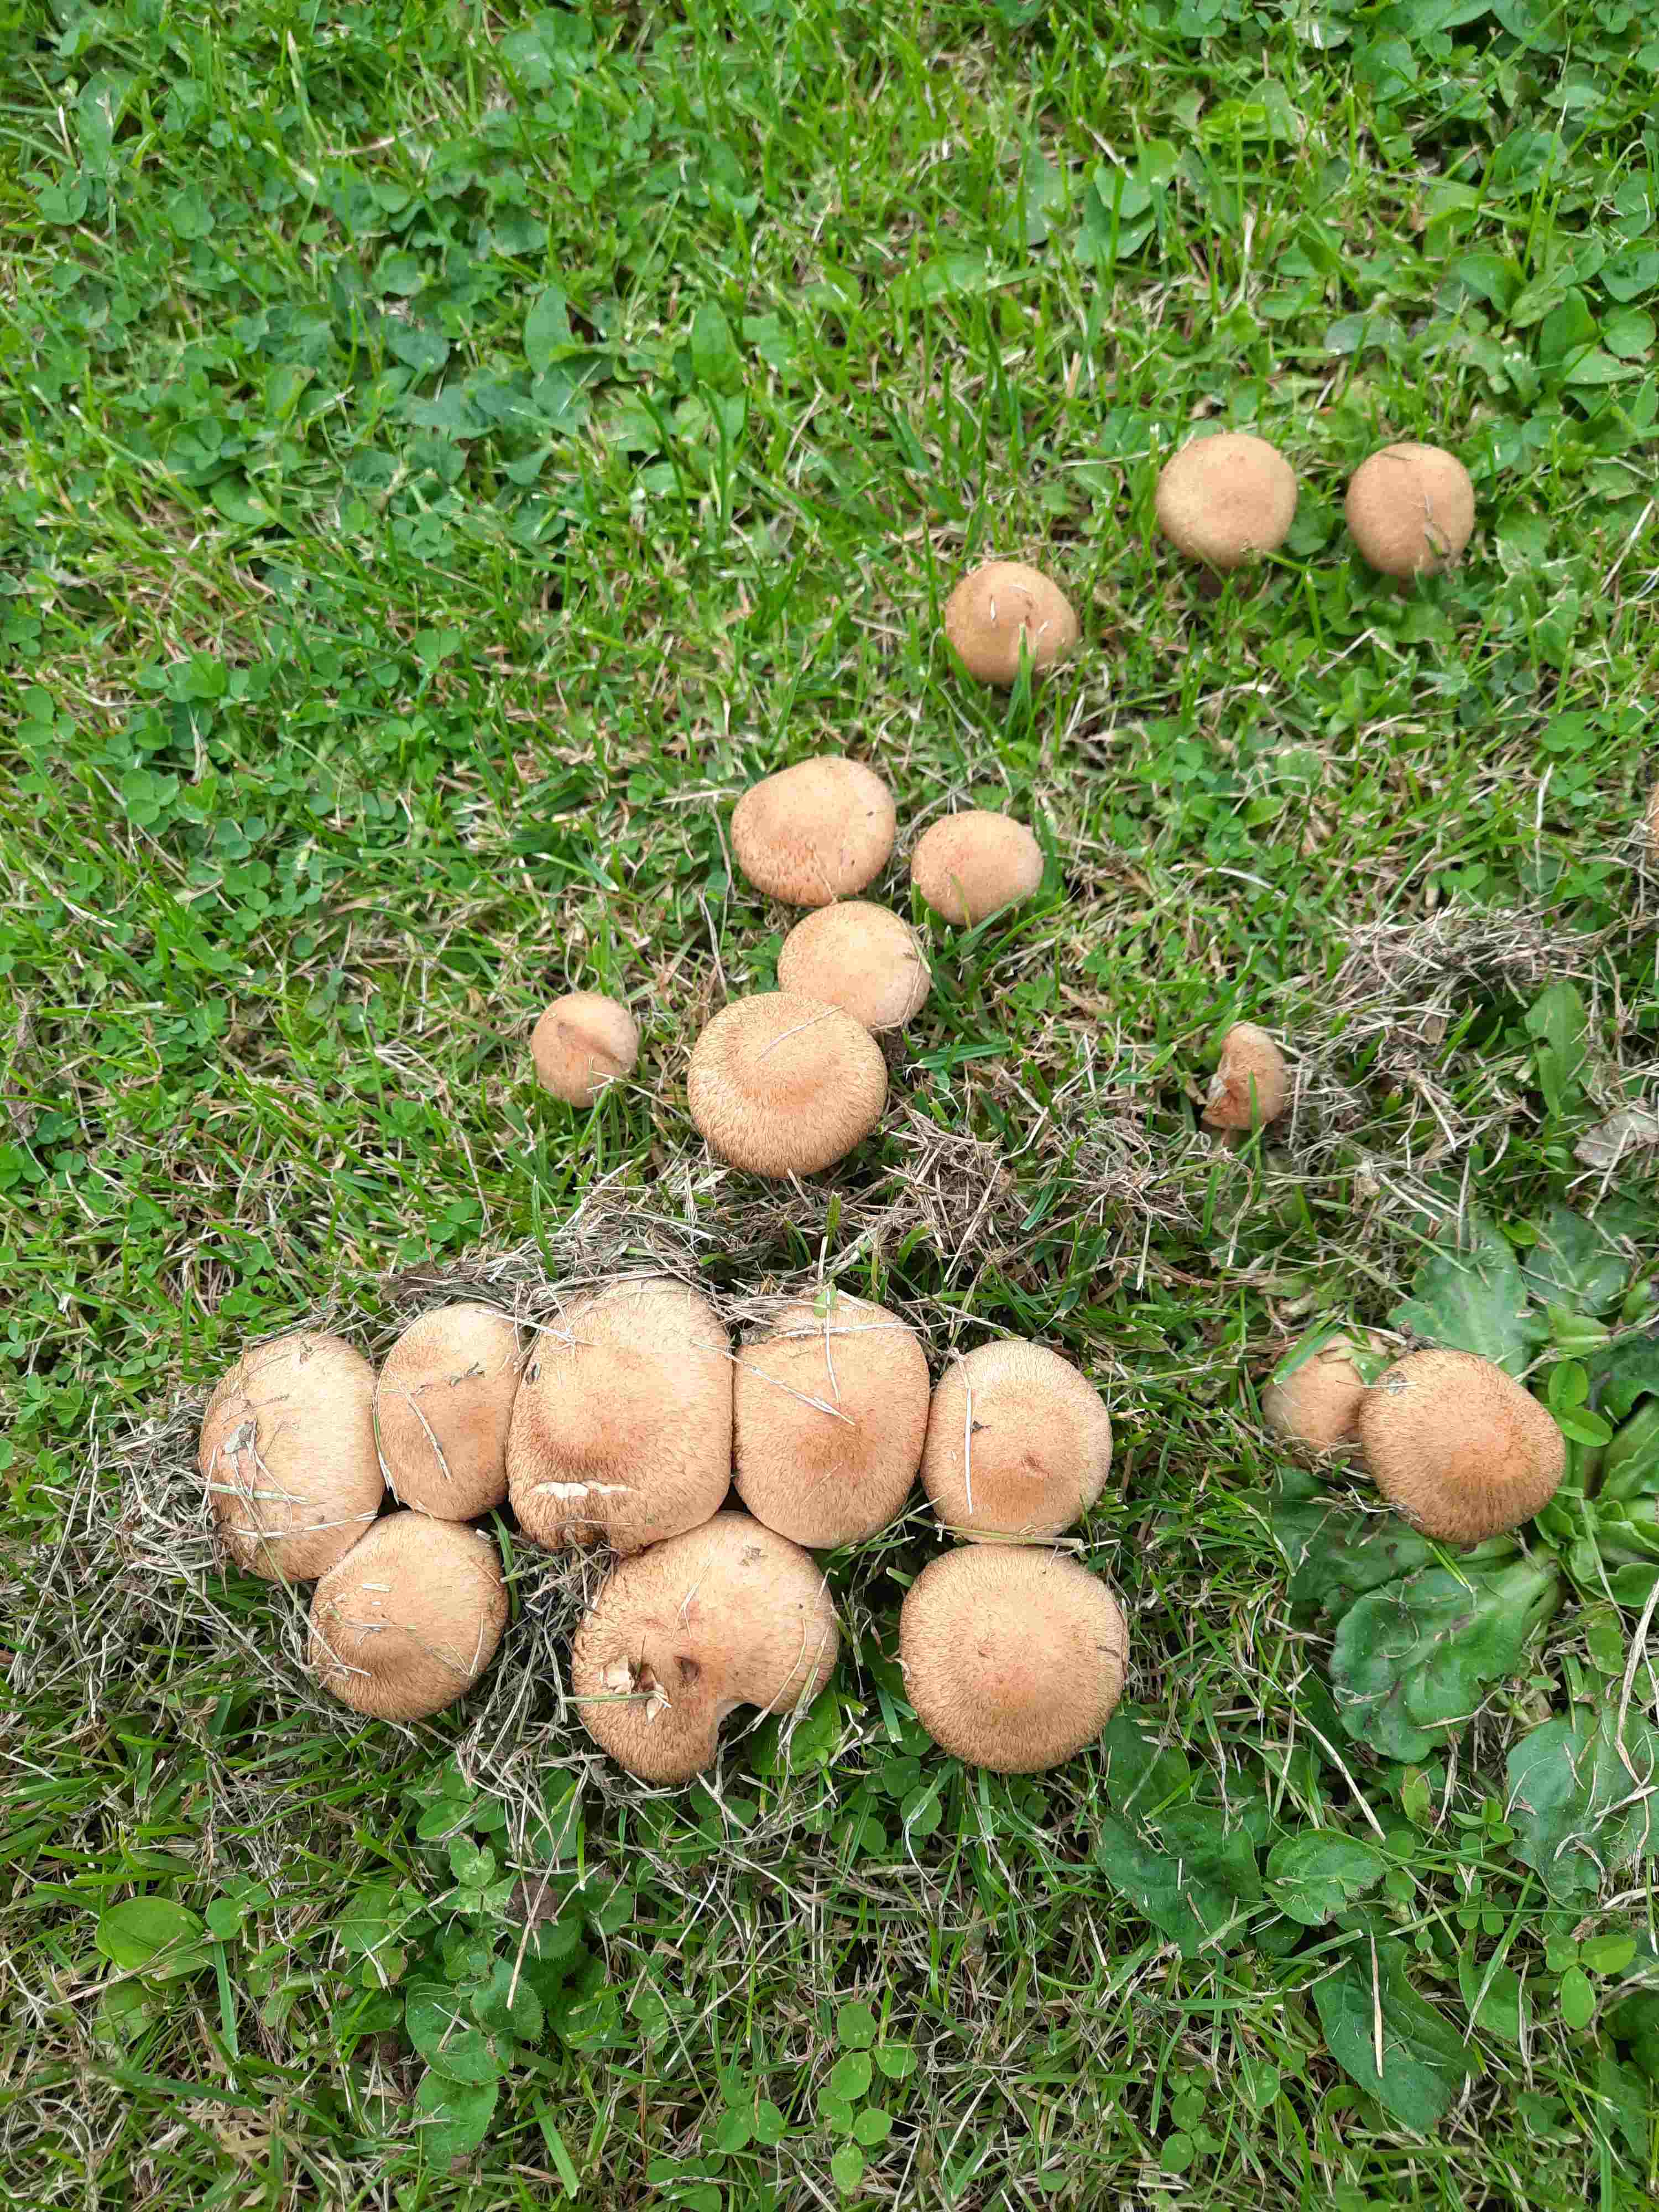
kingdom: Fungi
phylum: Basidiomycota
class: Agaricomycetes
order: Agaricales
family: Psathyrellaceae
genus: Lacrymaria
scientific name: Lacrymaria lacrymabunda
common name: grædende mørkhat
